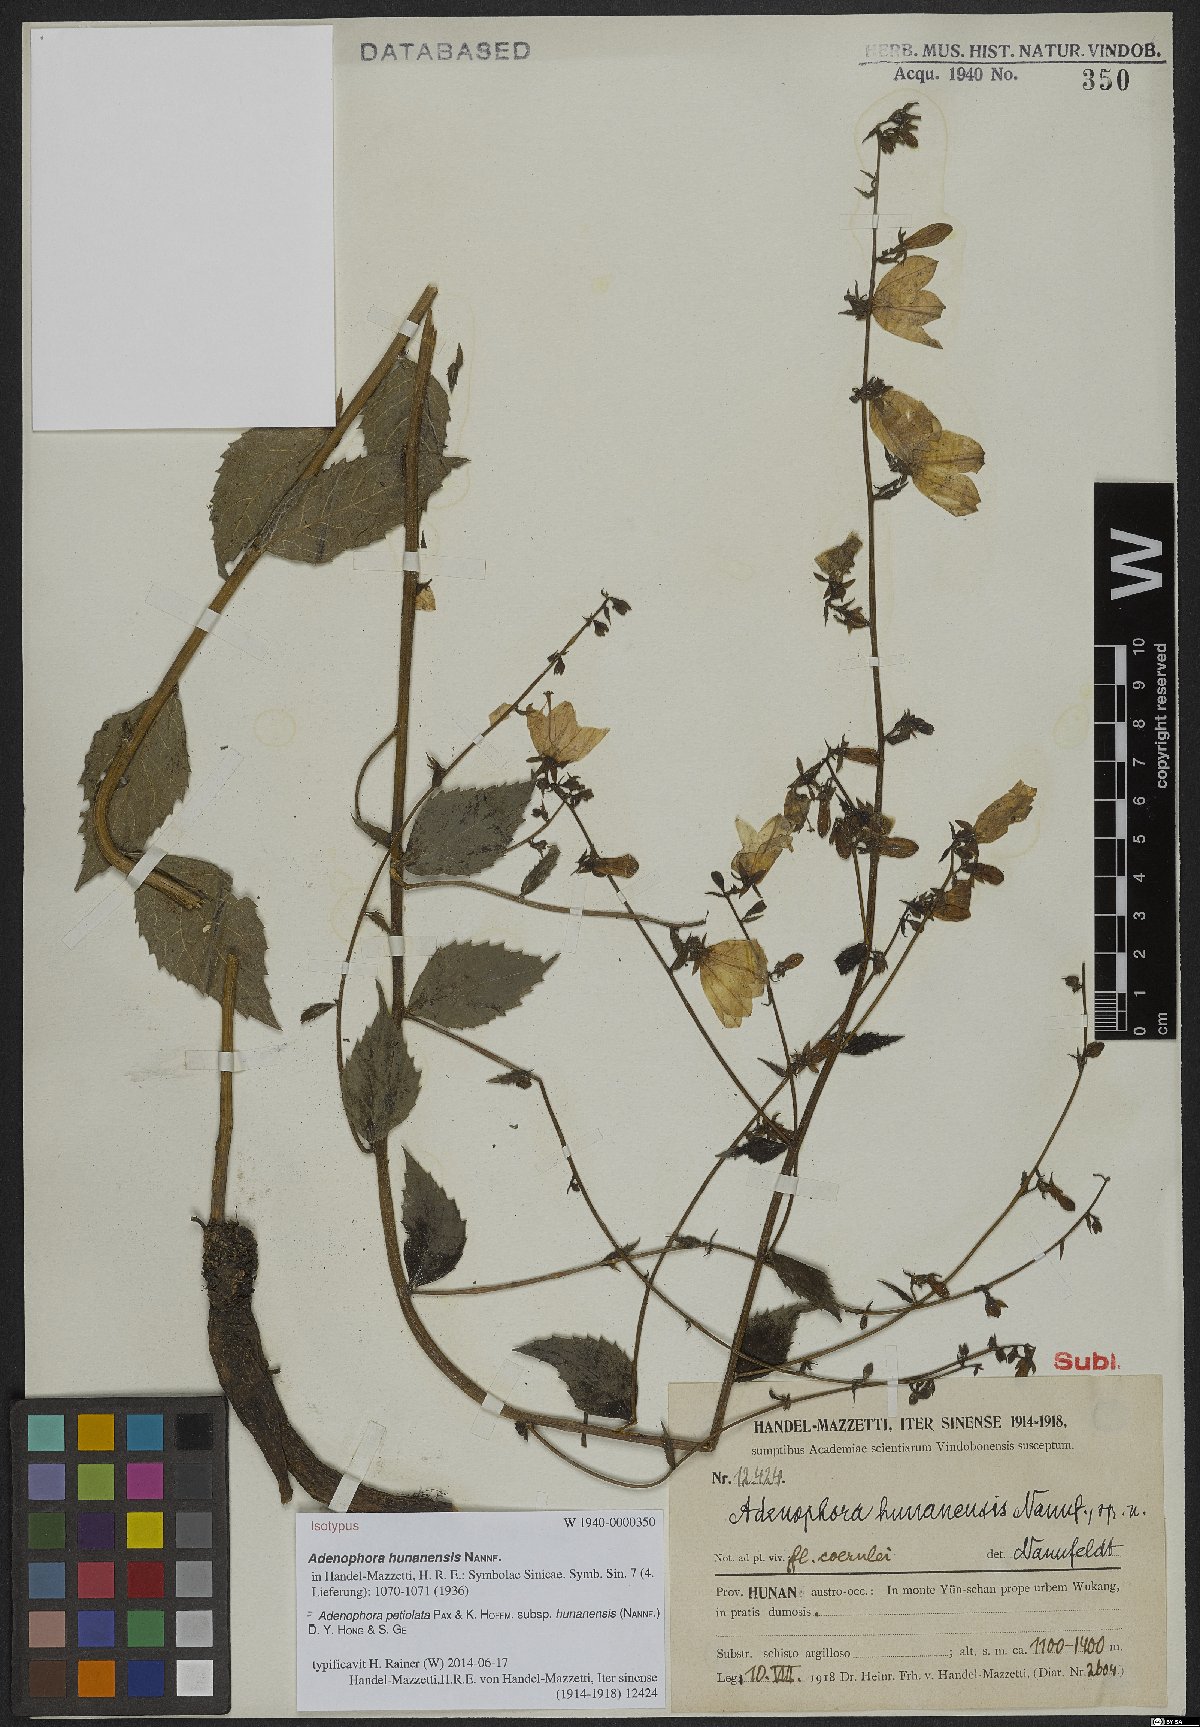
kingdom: Plantae
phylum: Tracheophyta
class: Magnoliopsida
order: Asterales
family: Campanulaceae
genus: Adenophora
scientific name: Adenophora petiolata
